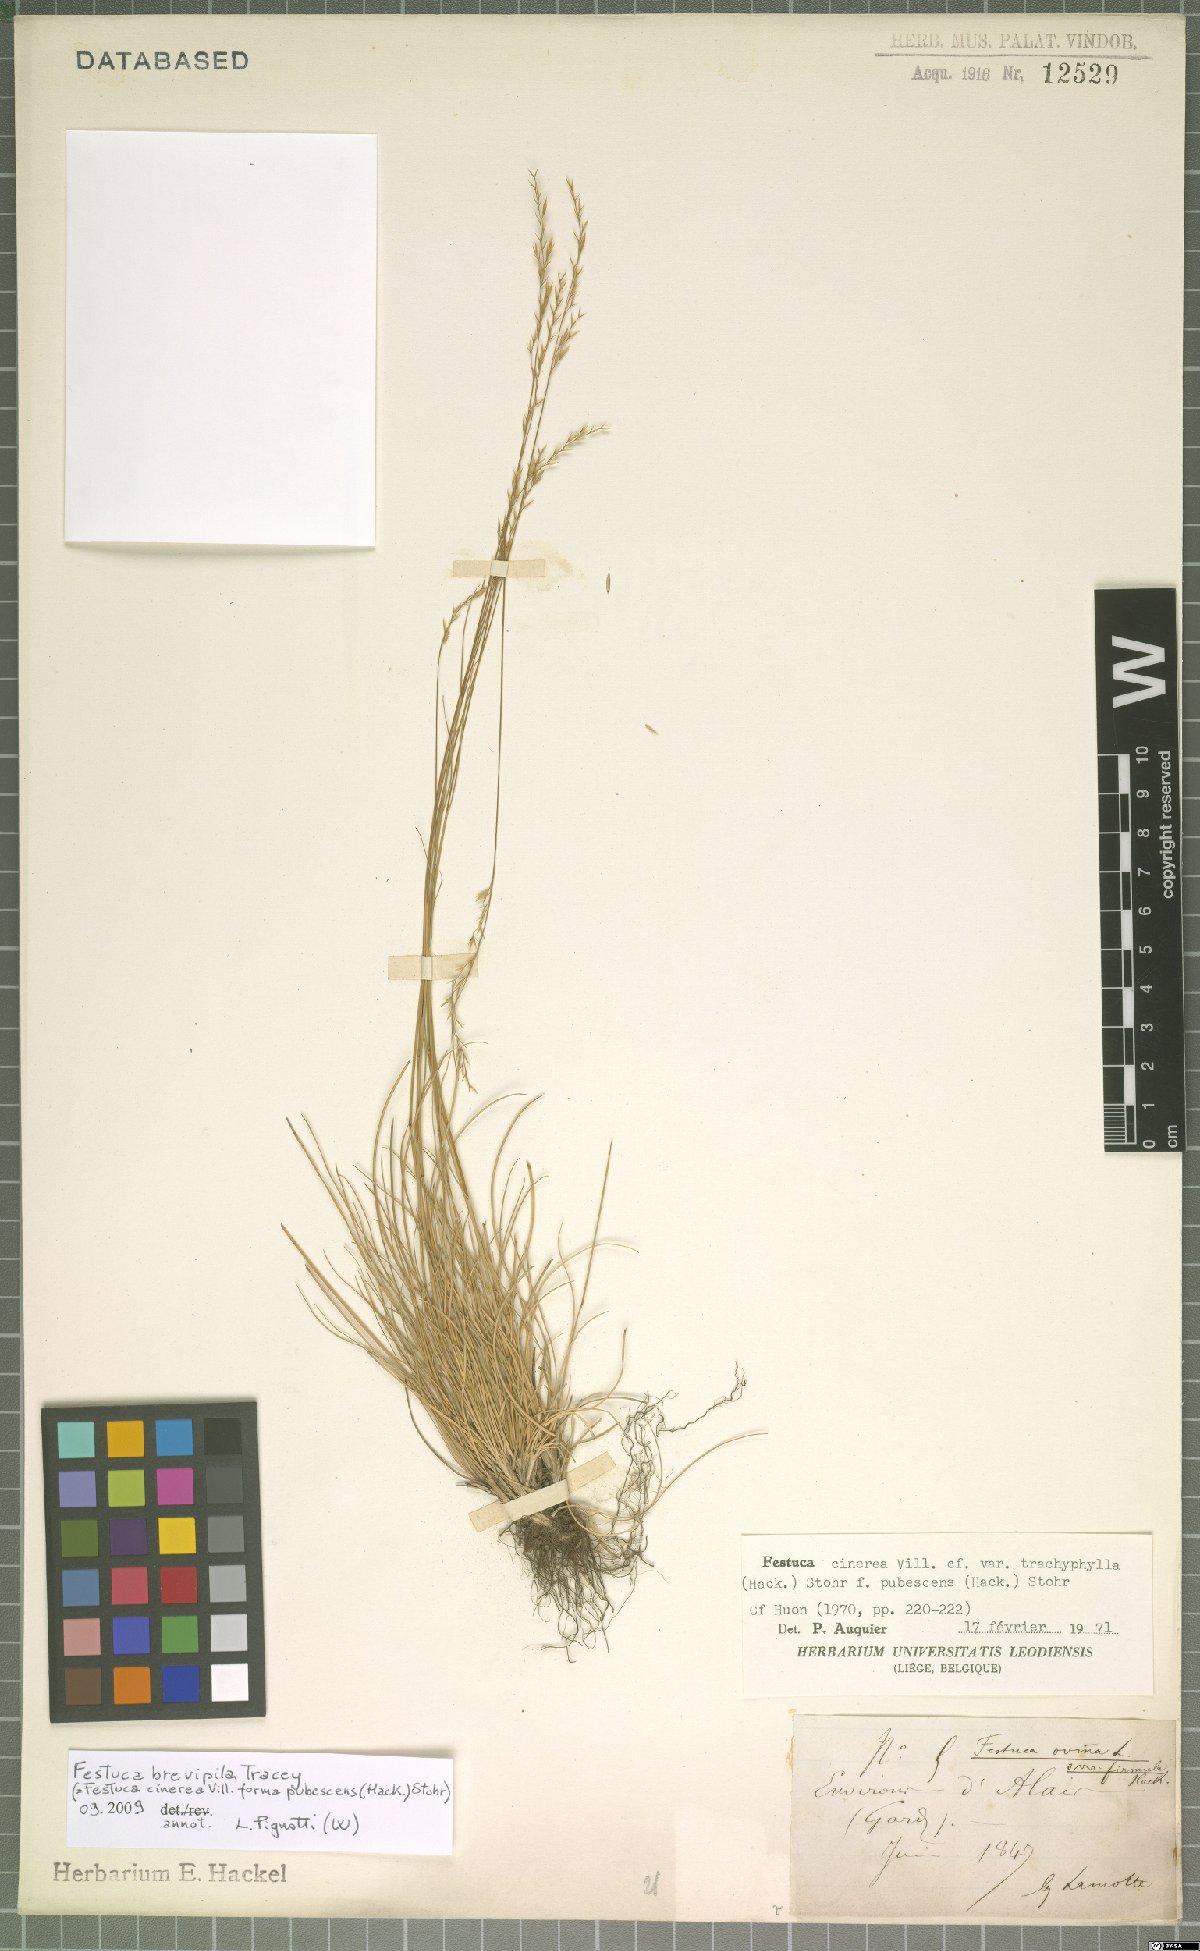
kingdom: Plantae
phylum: Tracheophyta
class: Liliopsida
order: Poales
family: Poaceae
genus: Festuca
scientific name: Festuca trachyphylla
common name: Hard fescue
